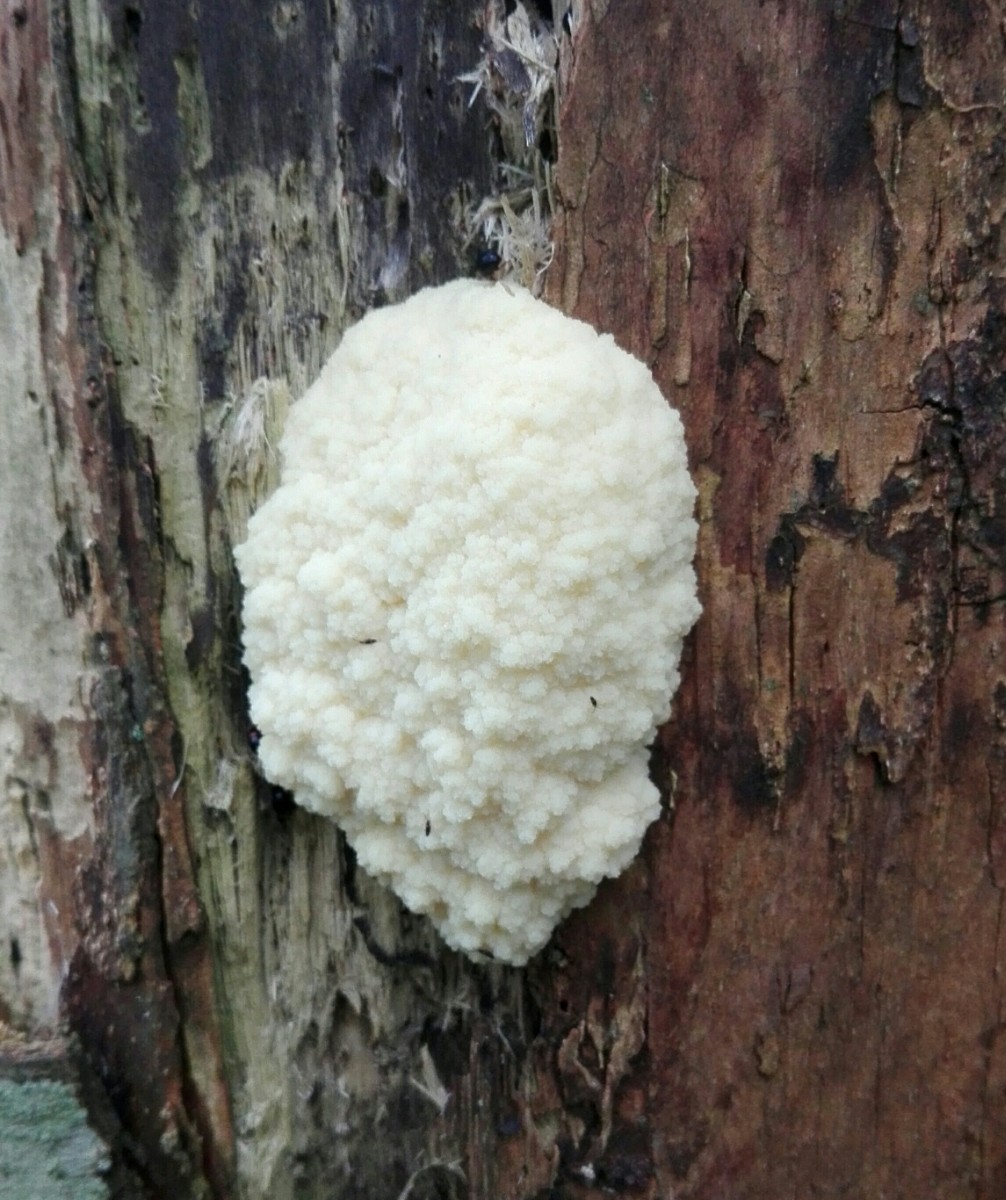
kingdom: Protozoa
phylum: Mycetozoa
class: Myxomycetes
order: Cribrariales
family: Tubiferaceae
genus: Reticularia
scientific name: Reticularia lycoperdon
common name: skinnende støvpude
